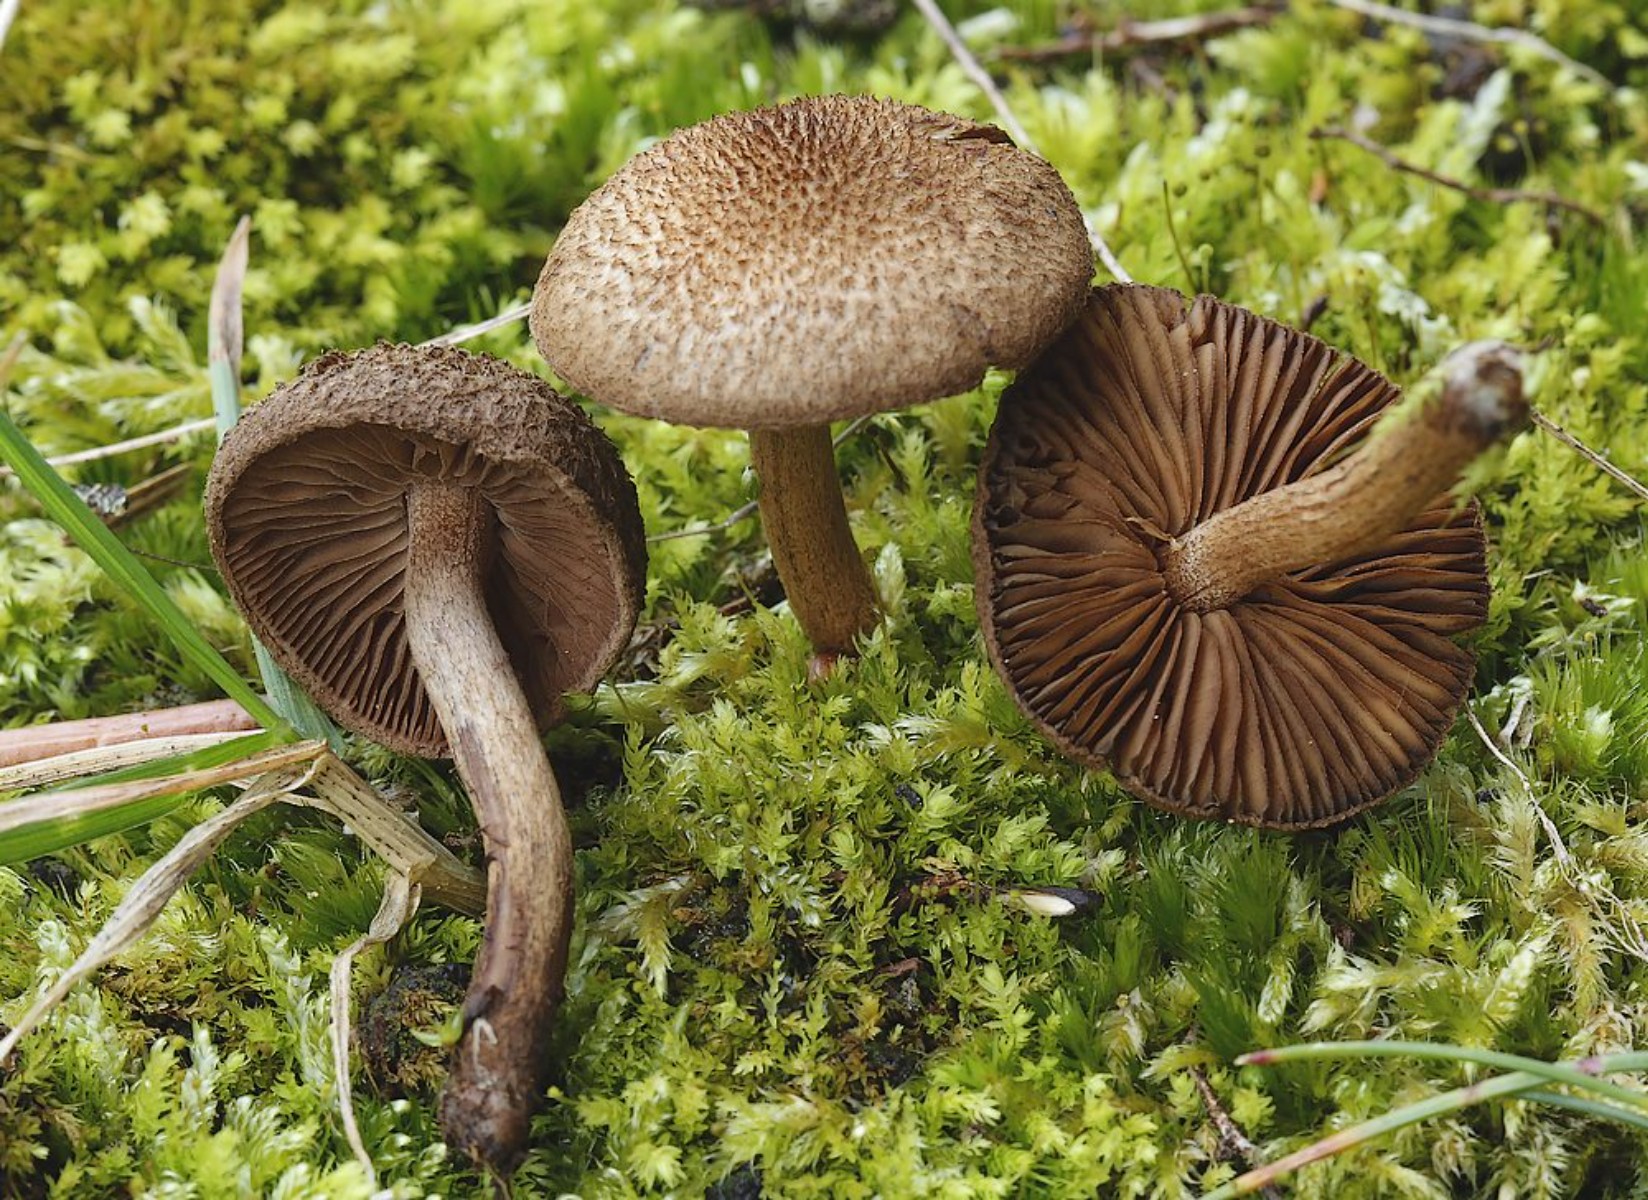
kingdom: Fungi
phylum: Basidiomycota
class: Agaricomycetes
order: Agaricales
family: Inocybaceae
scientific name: Inocybaceae
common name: trævlhatfamilien
